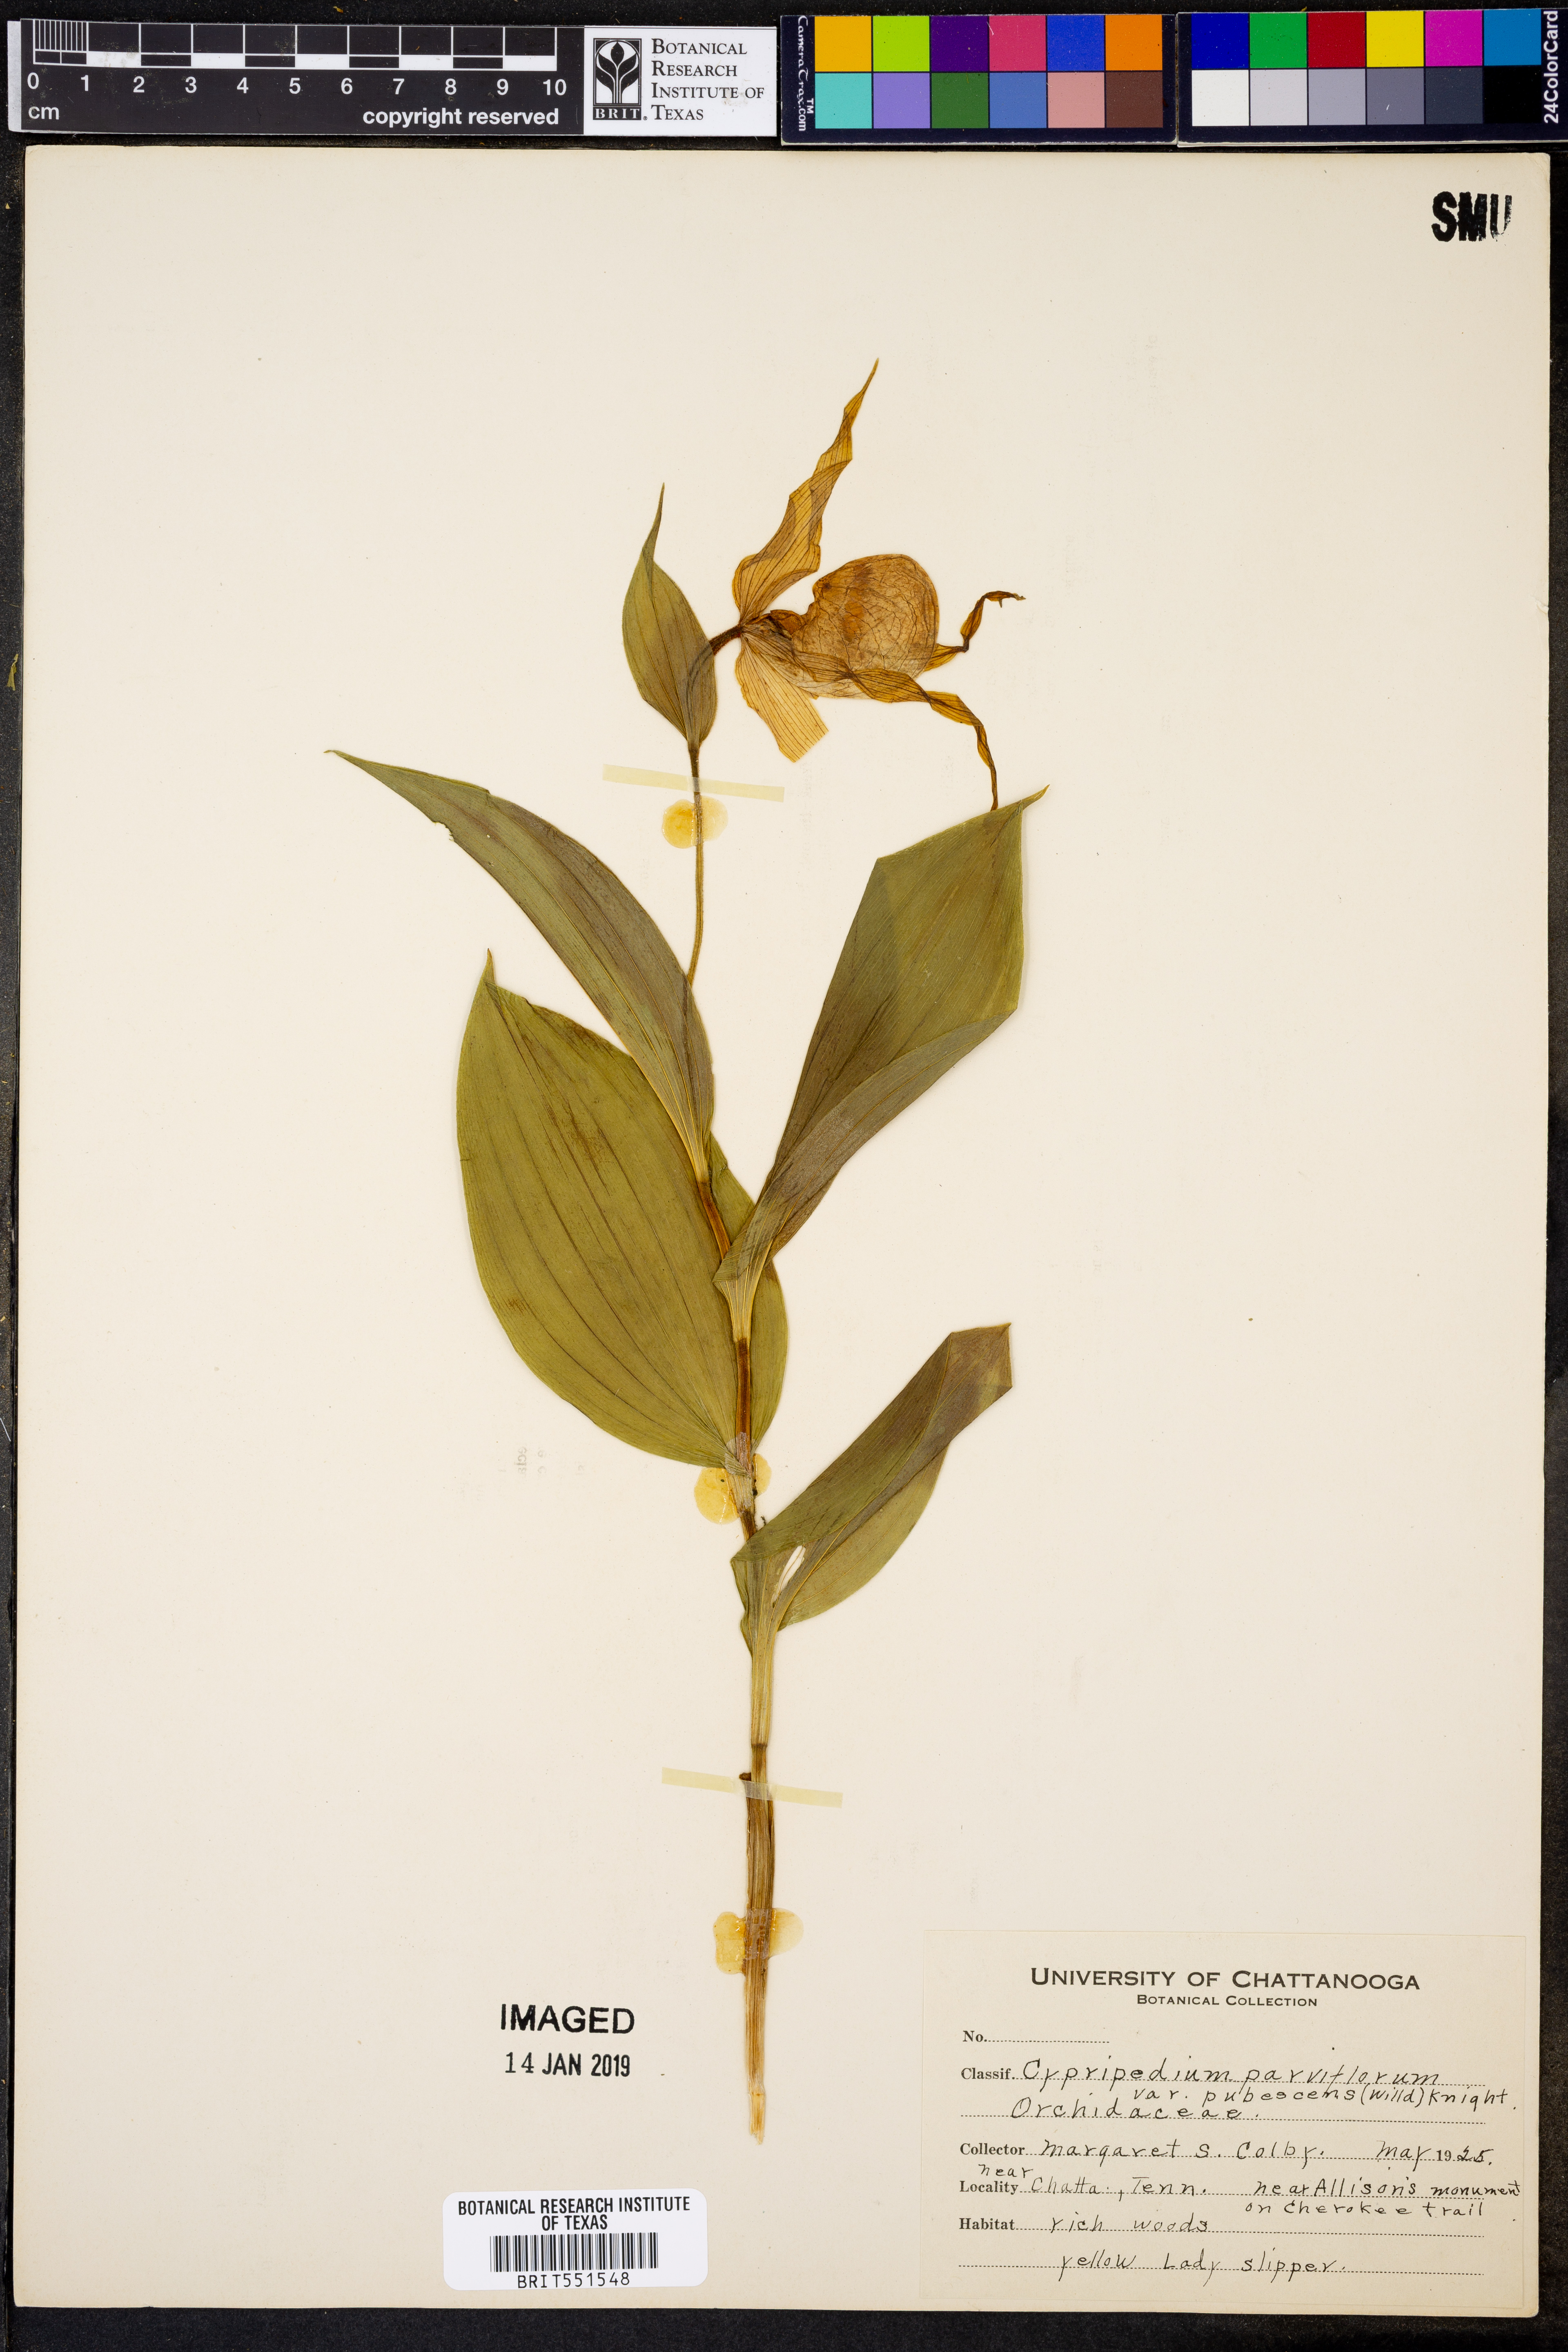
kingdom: Plantae
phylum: Tracheophyta
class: Liliopsida
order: Asparagales
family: Orchidaceae
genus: Cypripedium
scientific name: Cypripedium parviflorum
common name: American yellow lady's-slipper
